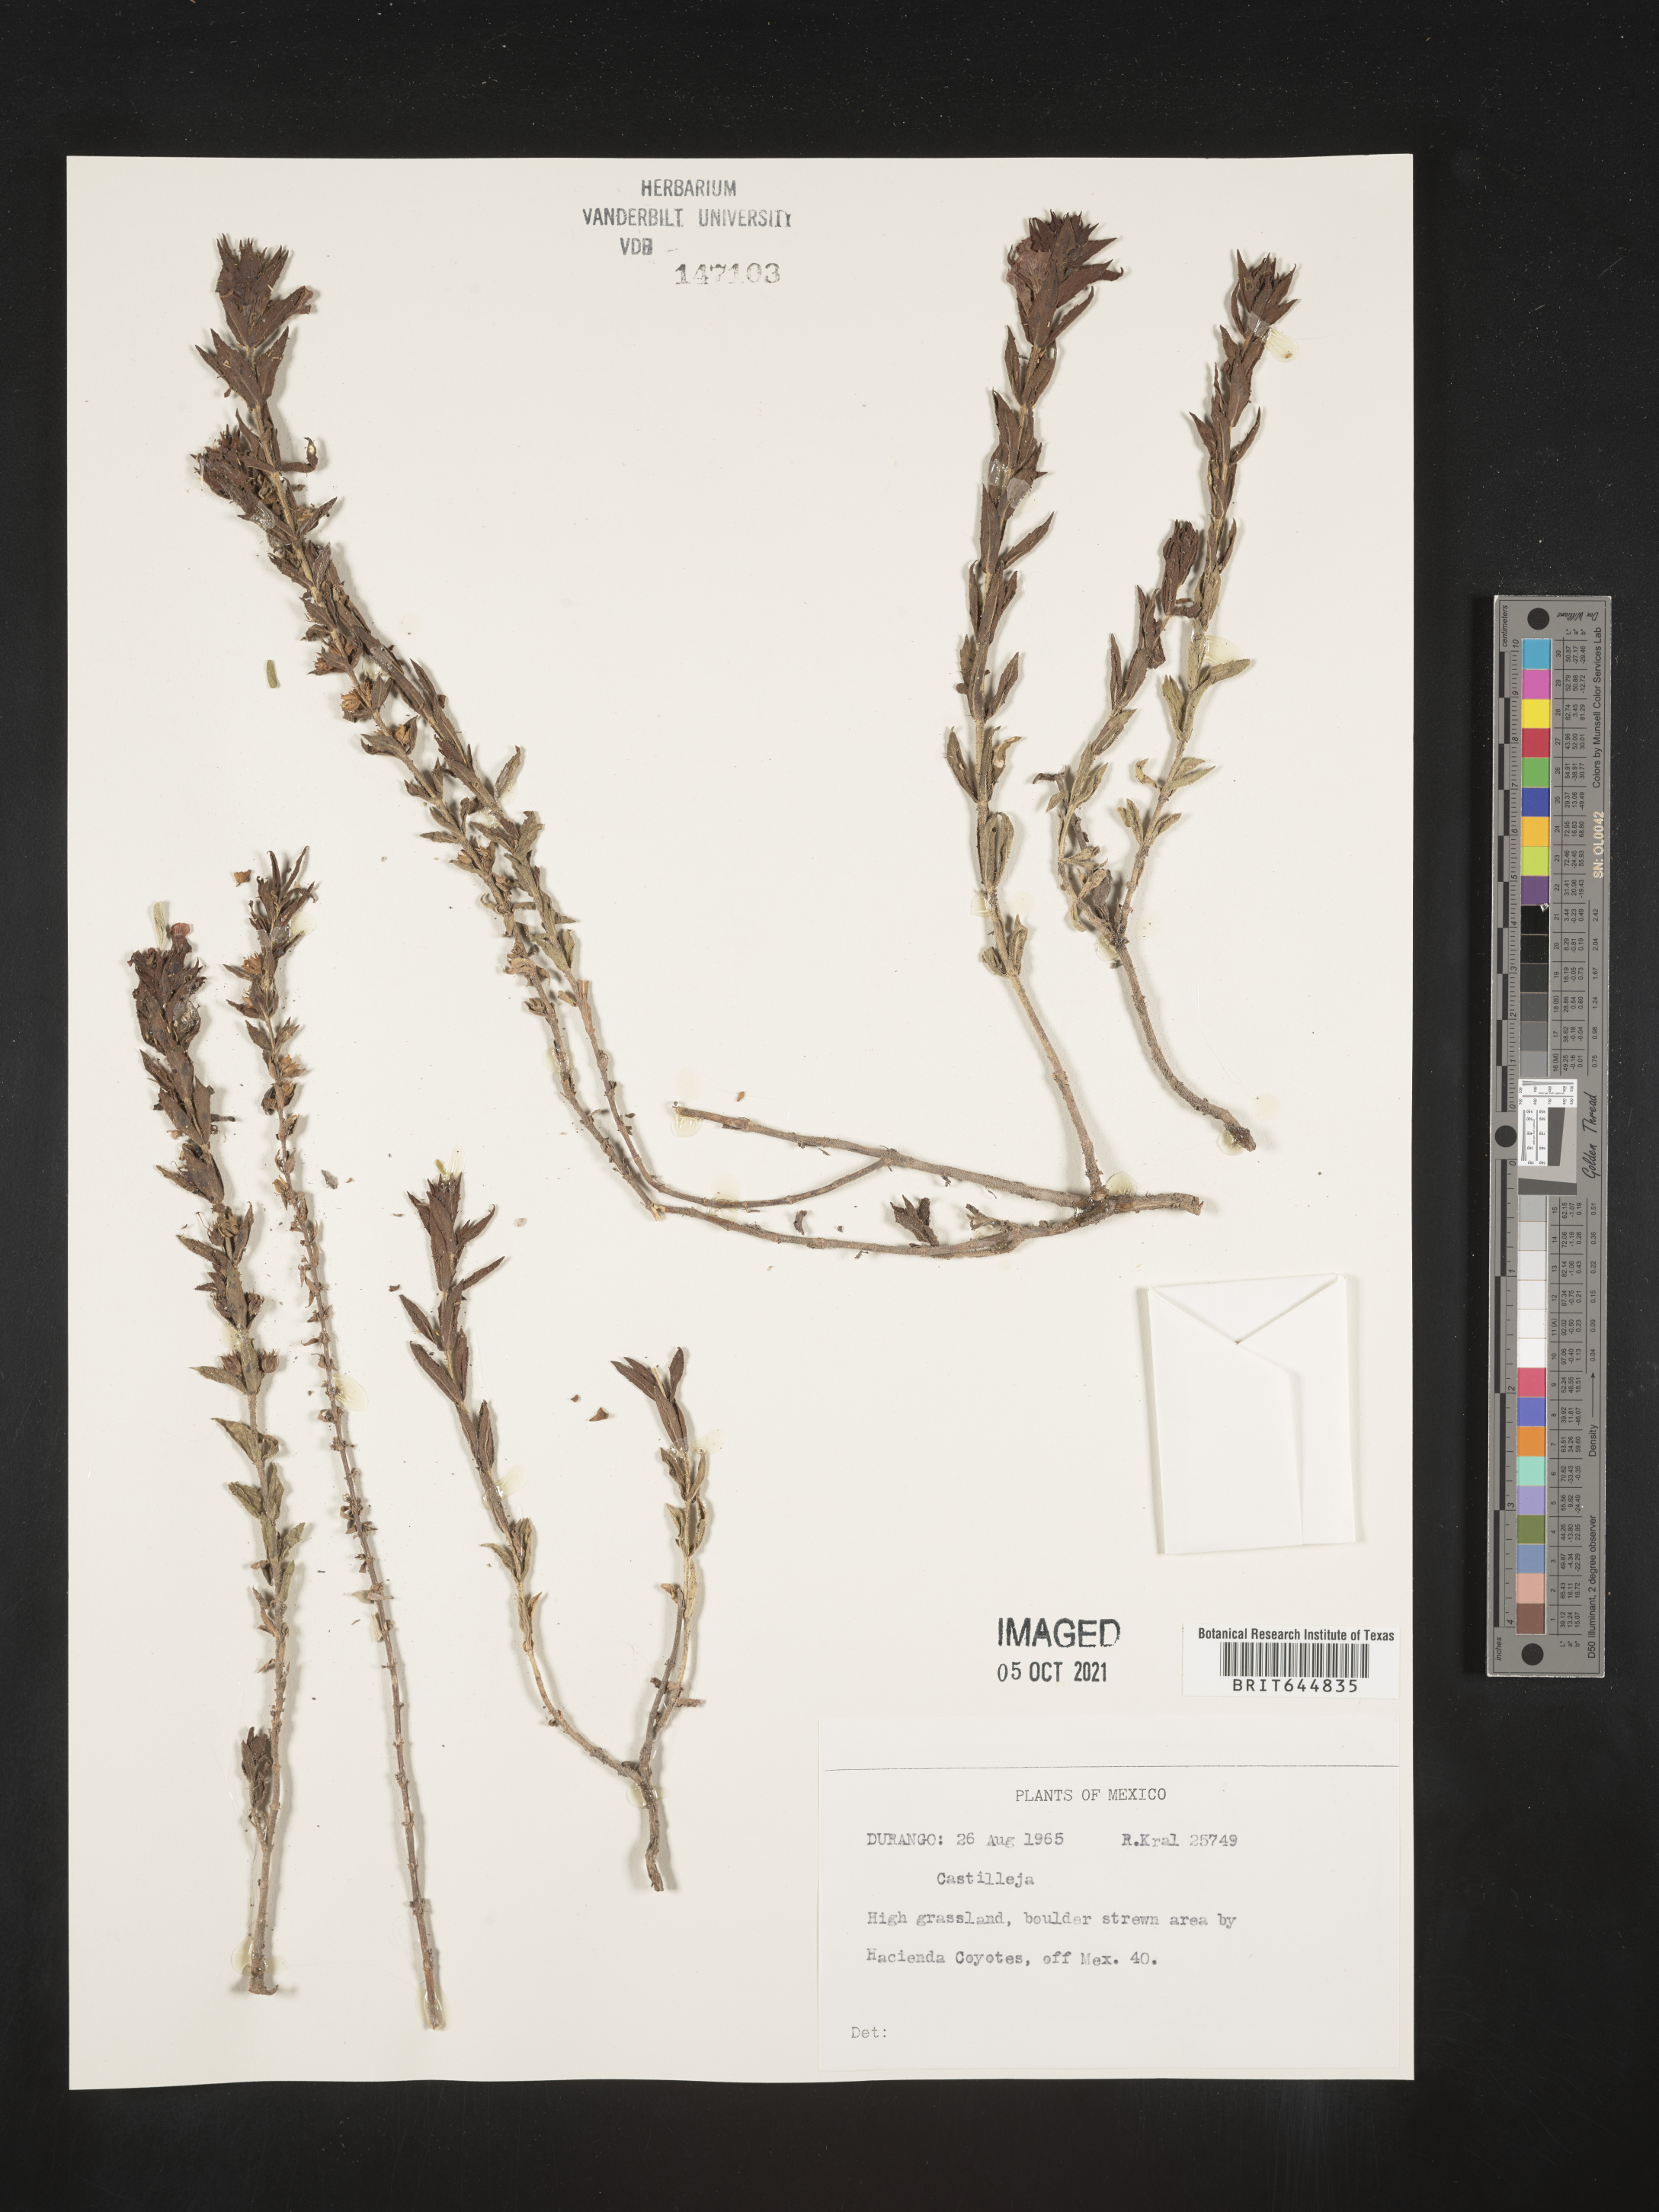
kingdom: Plantae
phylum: Tracheophyta
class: Magnoliopsida
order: Lamiales
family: Orobanchaceae
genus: Castilleja
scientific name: Castilleja
